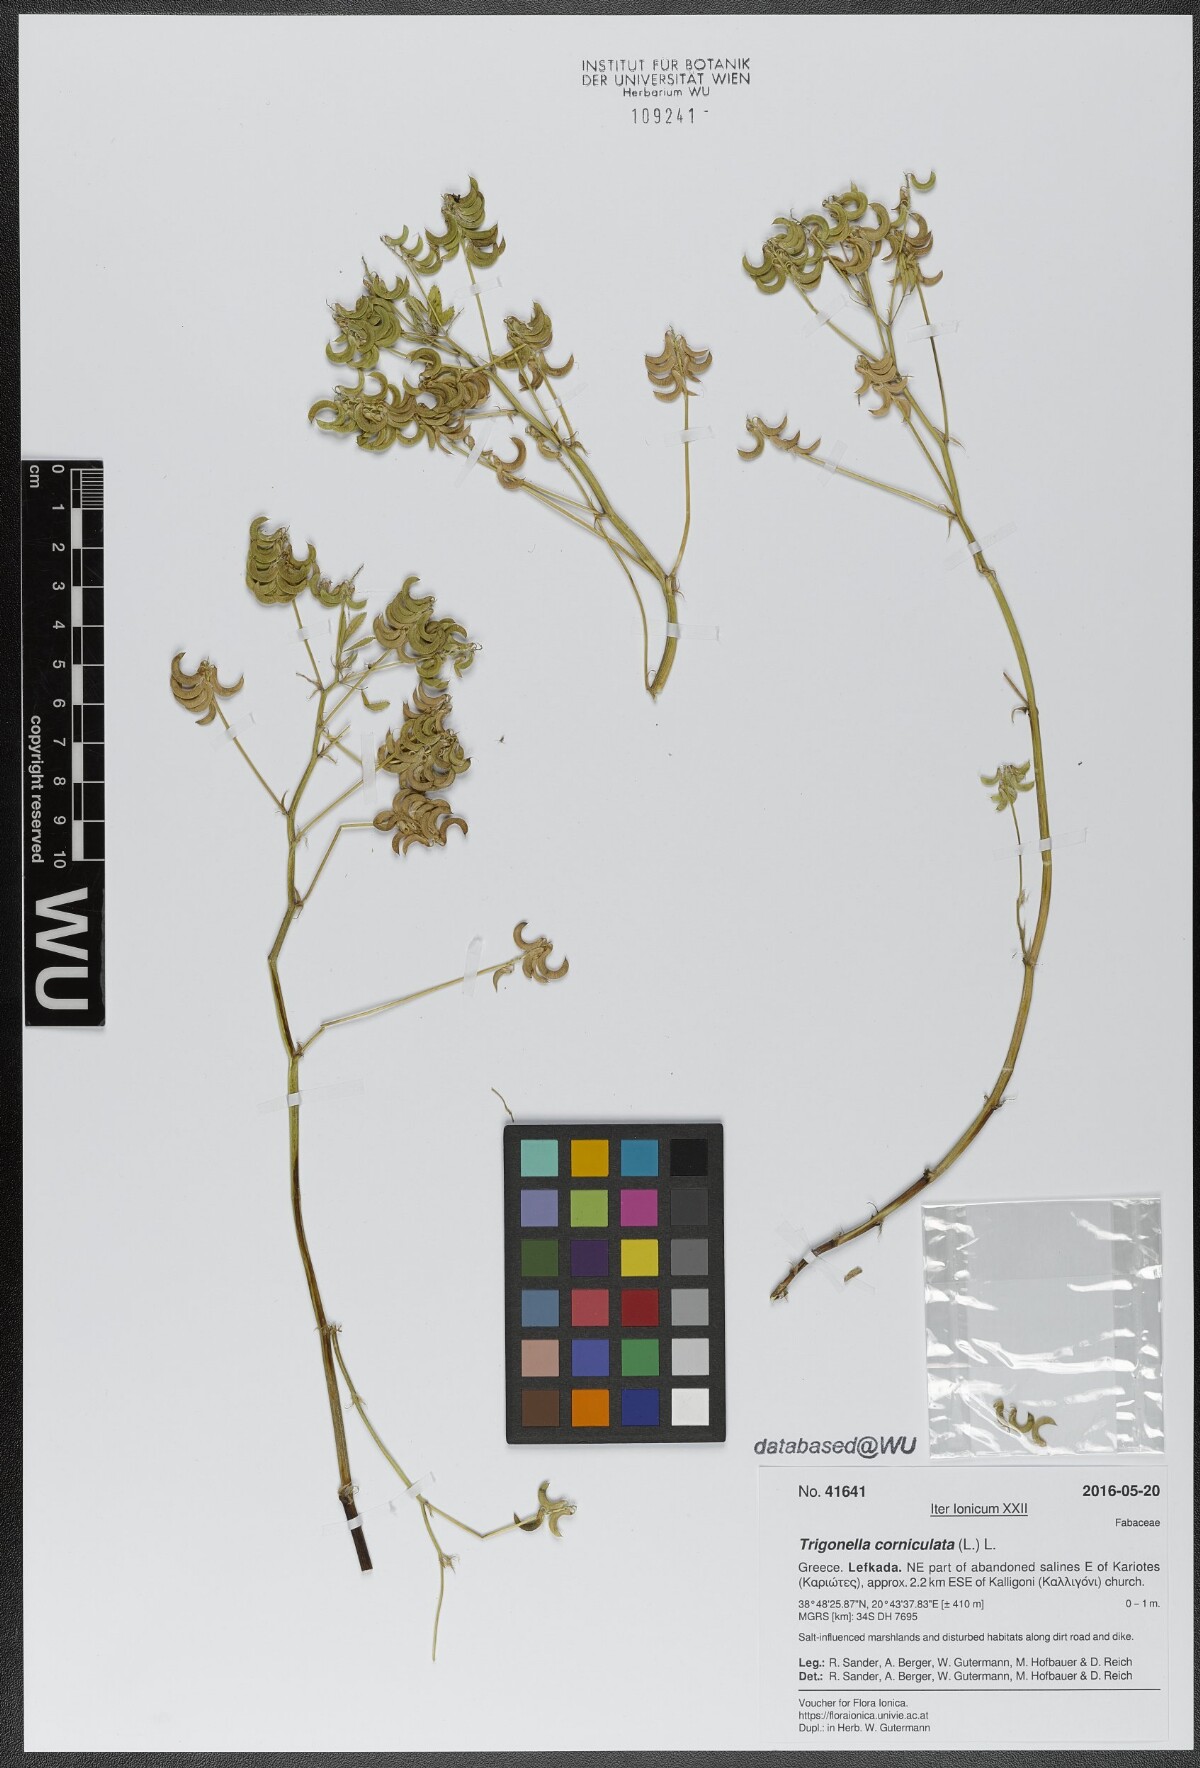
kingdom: Plantae
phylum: Tracheophyta
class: Magnoliopsida
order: Fabales
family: Fabaceae
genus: Trigonella
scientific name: Trigonella balansae
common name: Sickle-fruited fenugreek
